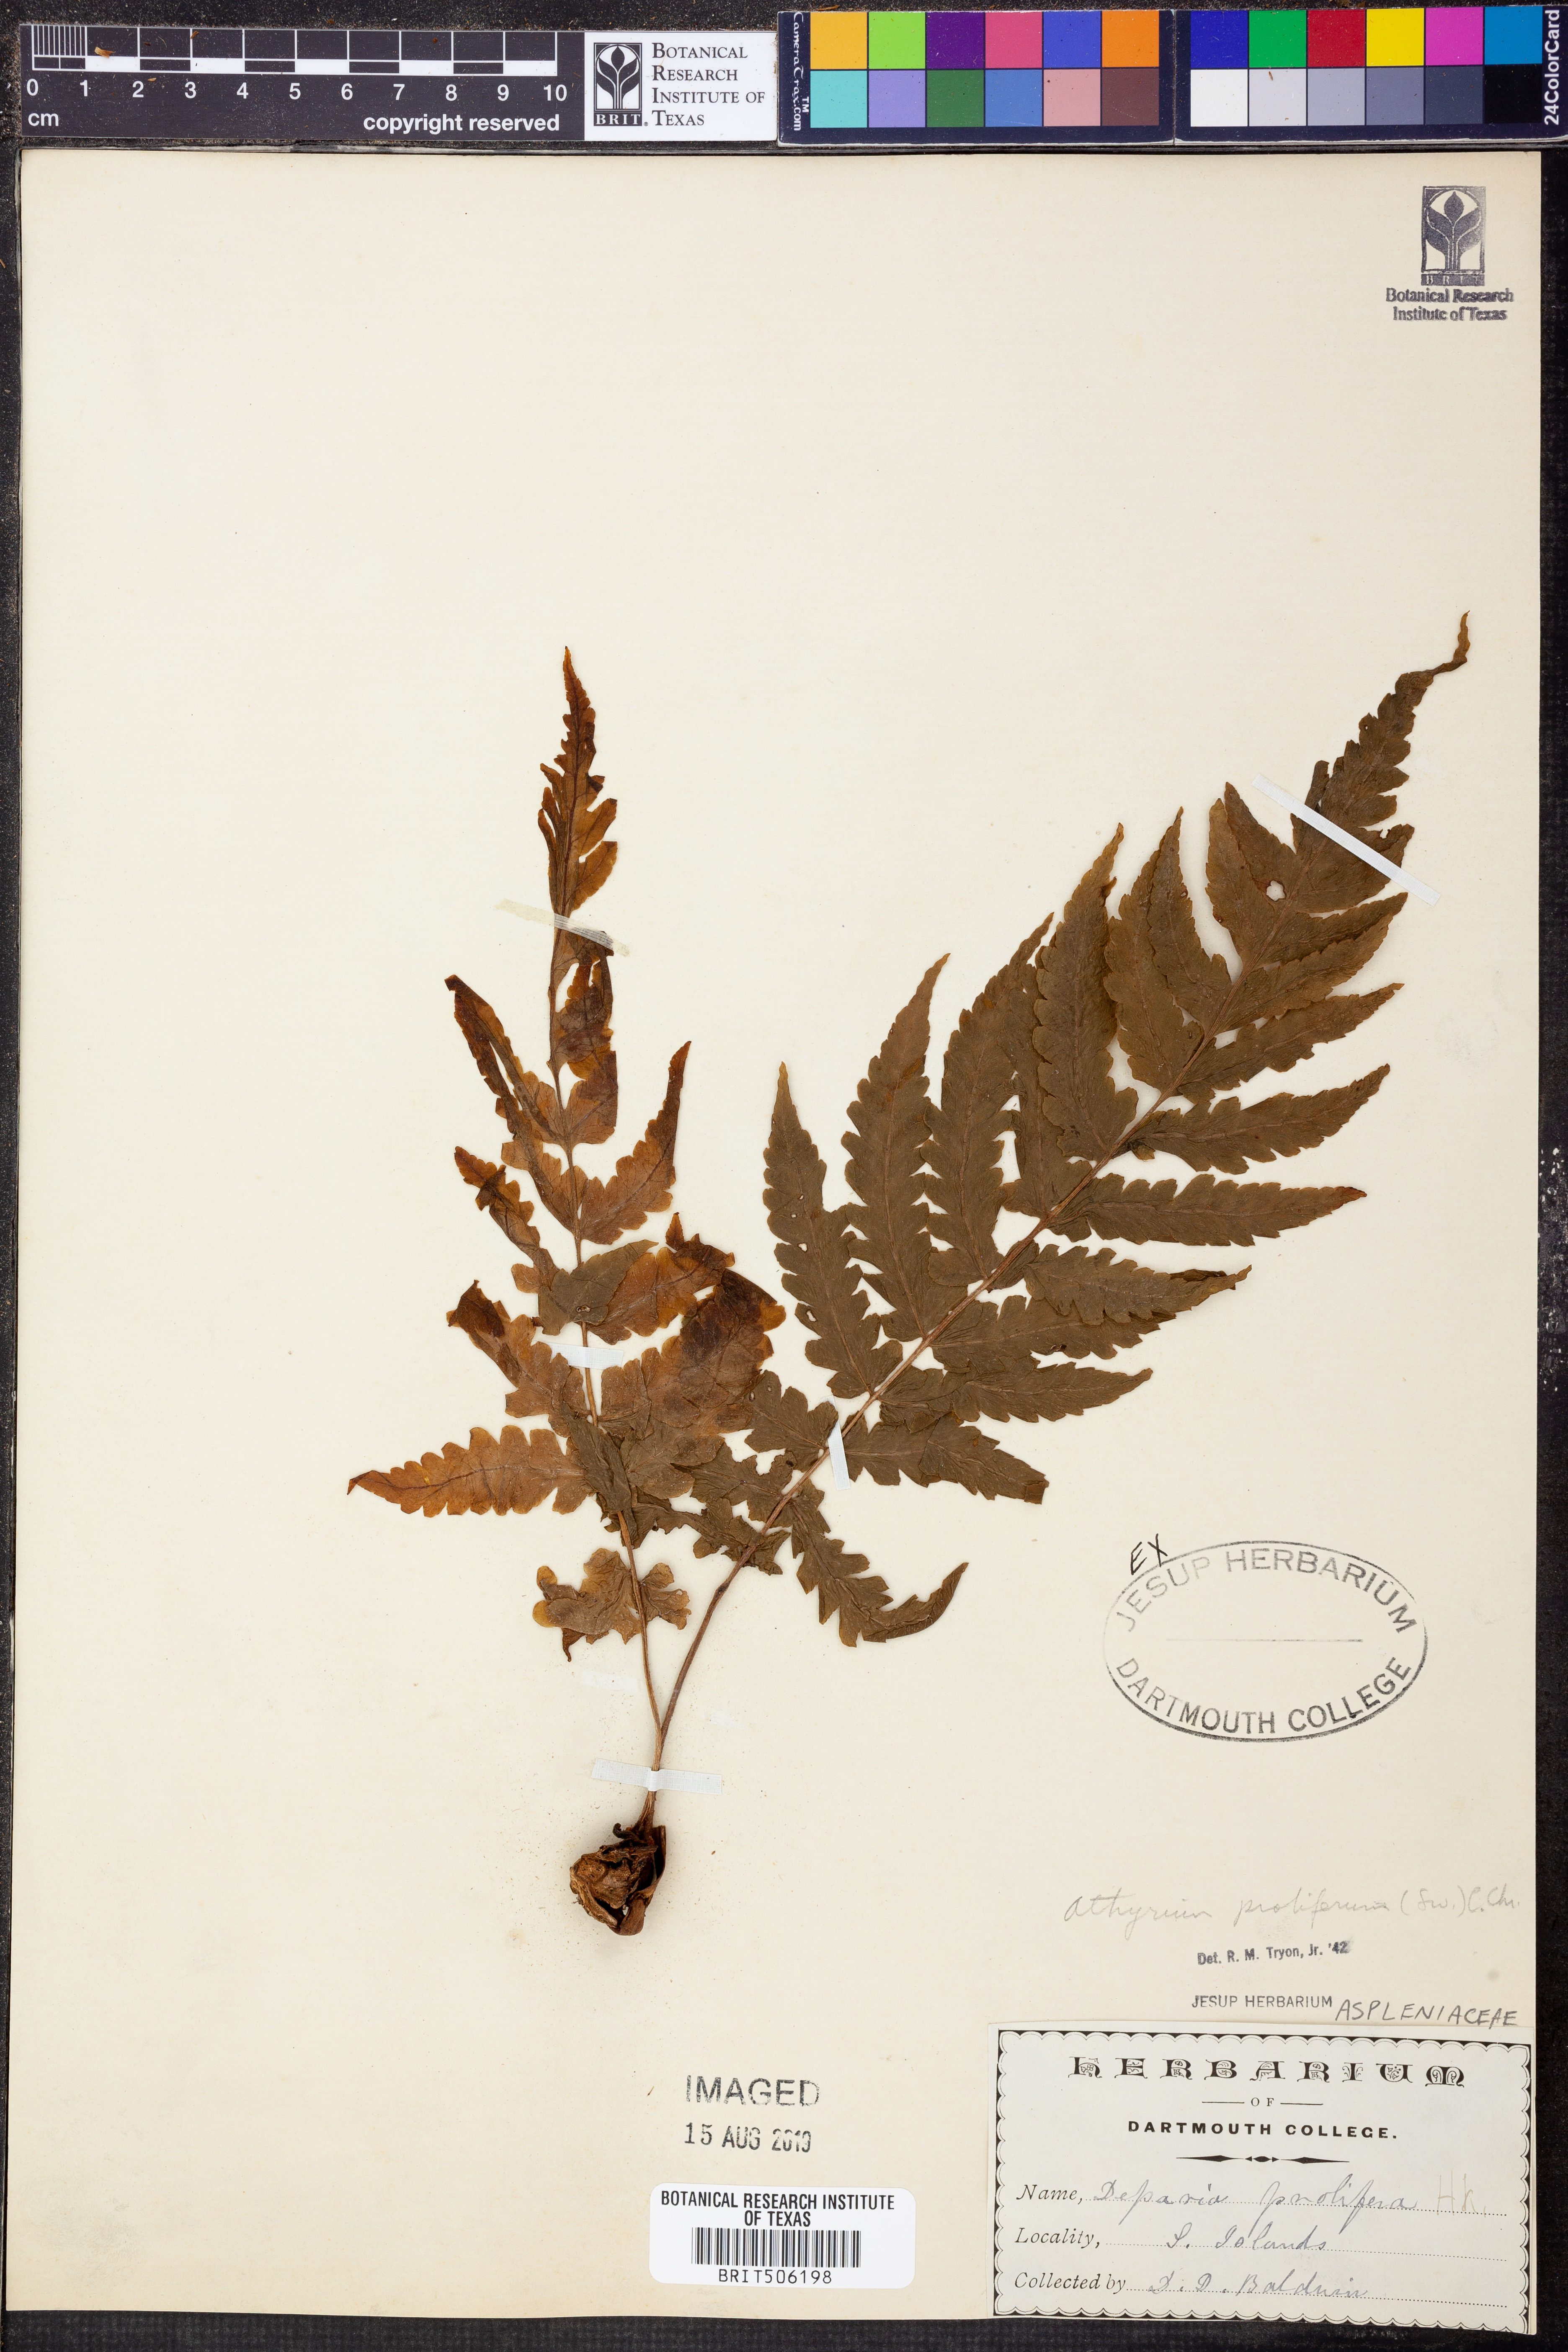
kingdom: Plantae
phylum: Tracheophyta
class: Polypodiopsida
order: Polypodiales
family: Athyriaceae
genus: Deparia
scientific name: Deparia prolifera
